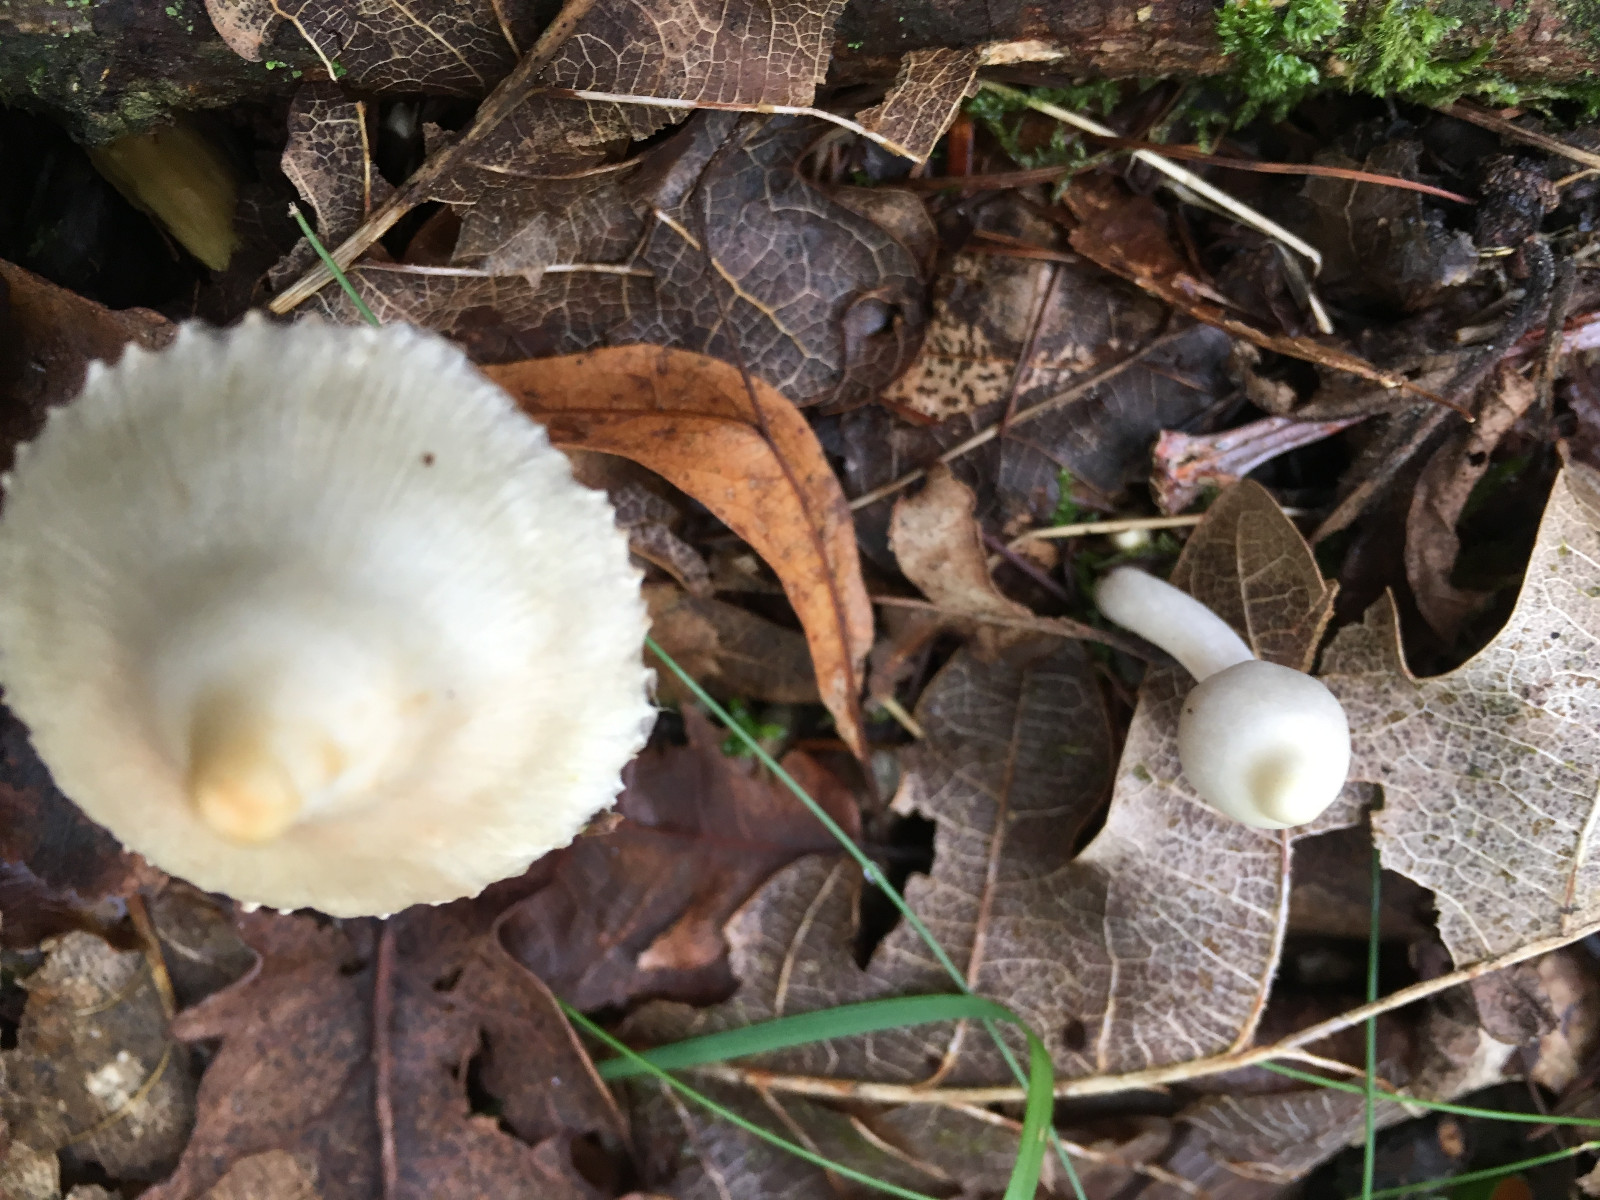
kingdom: Fungi
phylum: Basidiomycota
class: Agaricomycetes
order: Agaricales
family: Inocybaceae
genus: Inocybe
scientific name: Inocybe
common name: almindelig trævlhat
